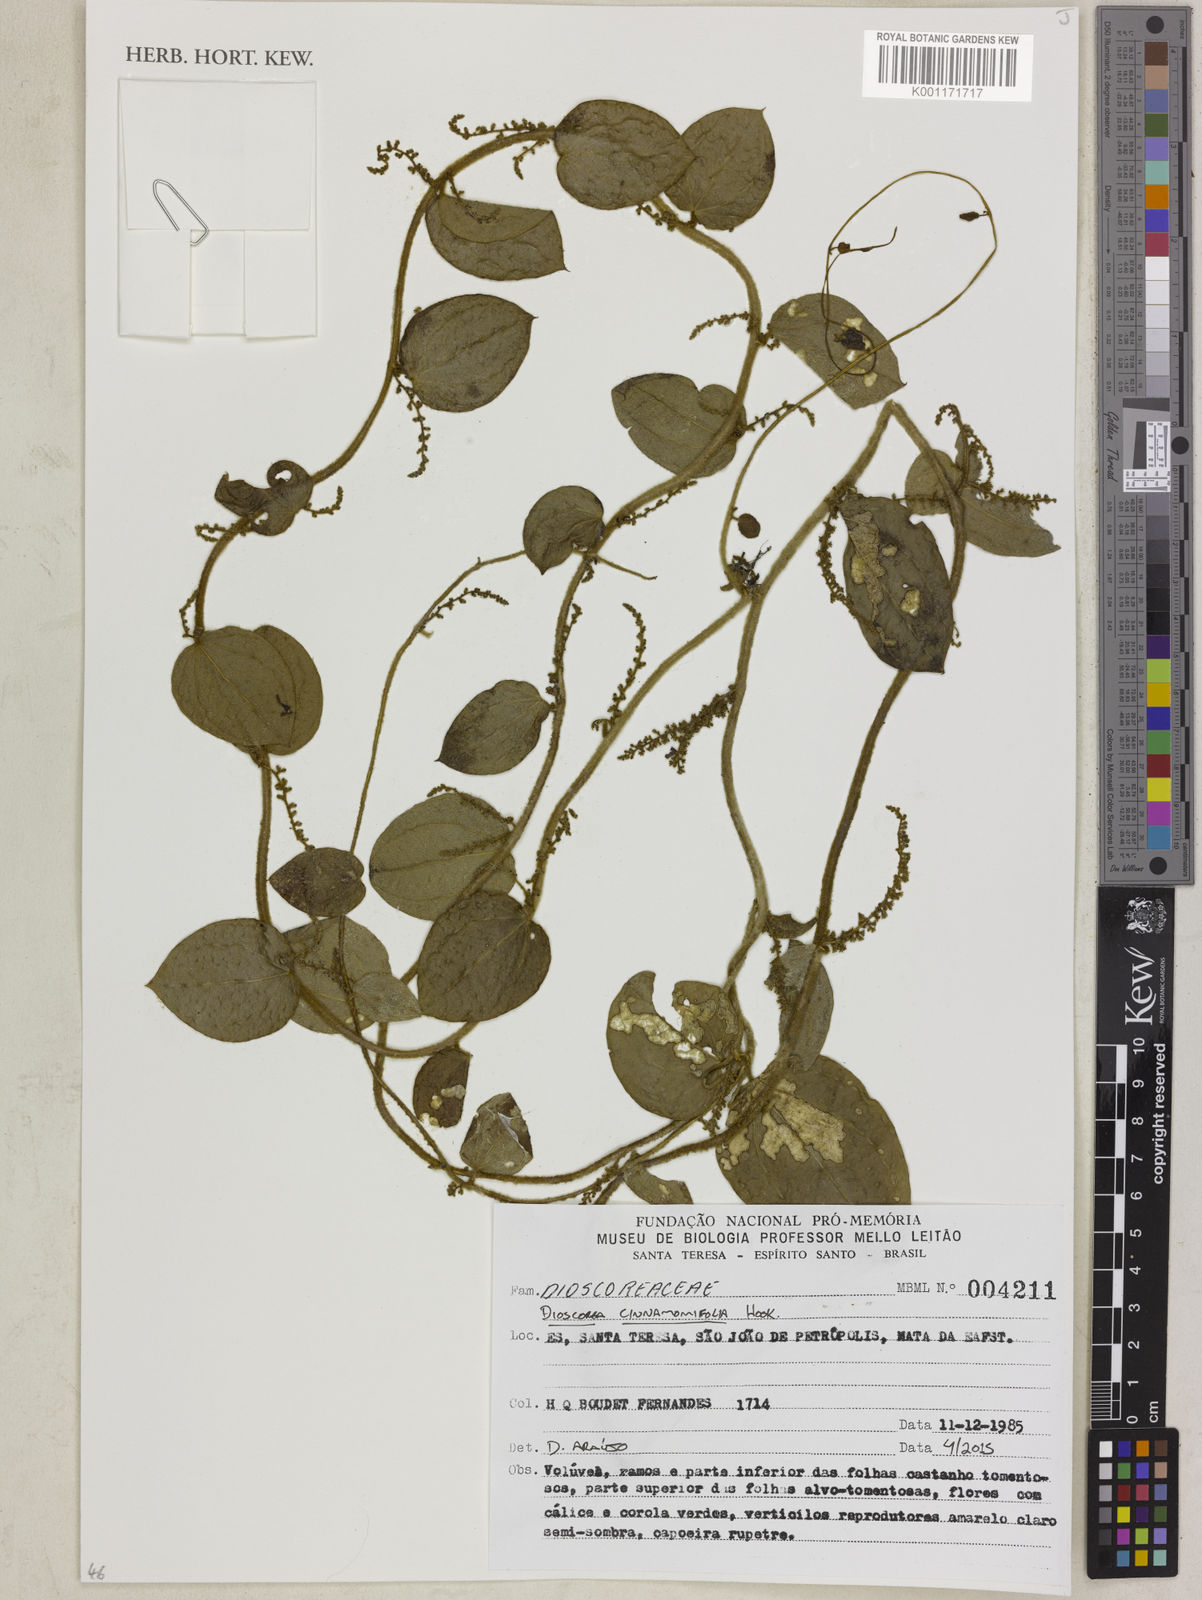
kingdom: Plantae
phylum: Tracheophyta
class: Liliopsida
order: Dioscoreales
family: Dioscoreaceae
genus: Dioscorea
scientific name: Dioscorea cinnamomifolia
